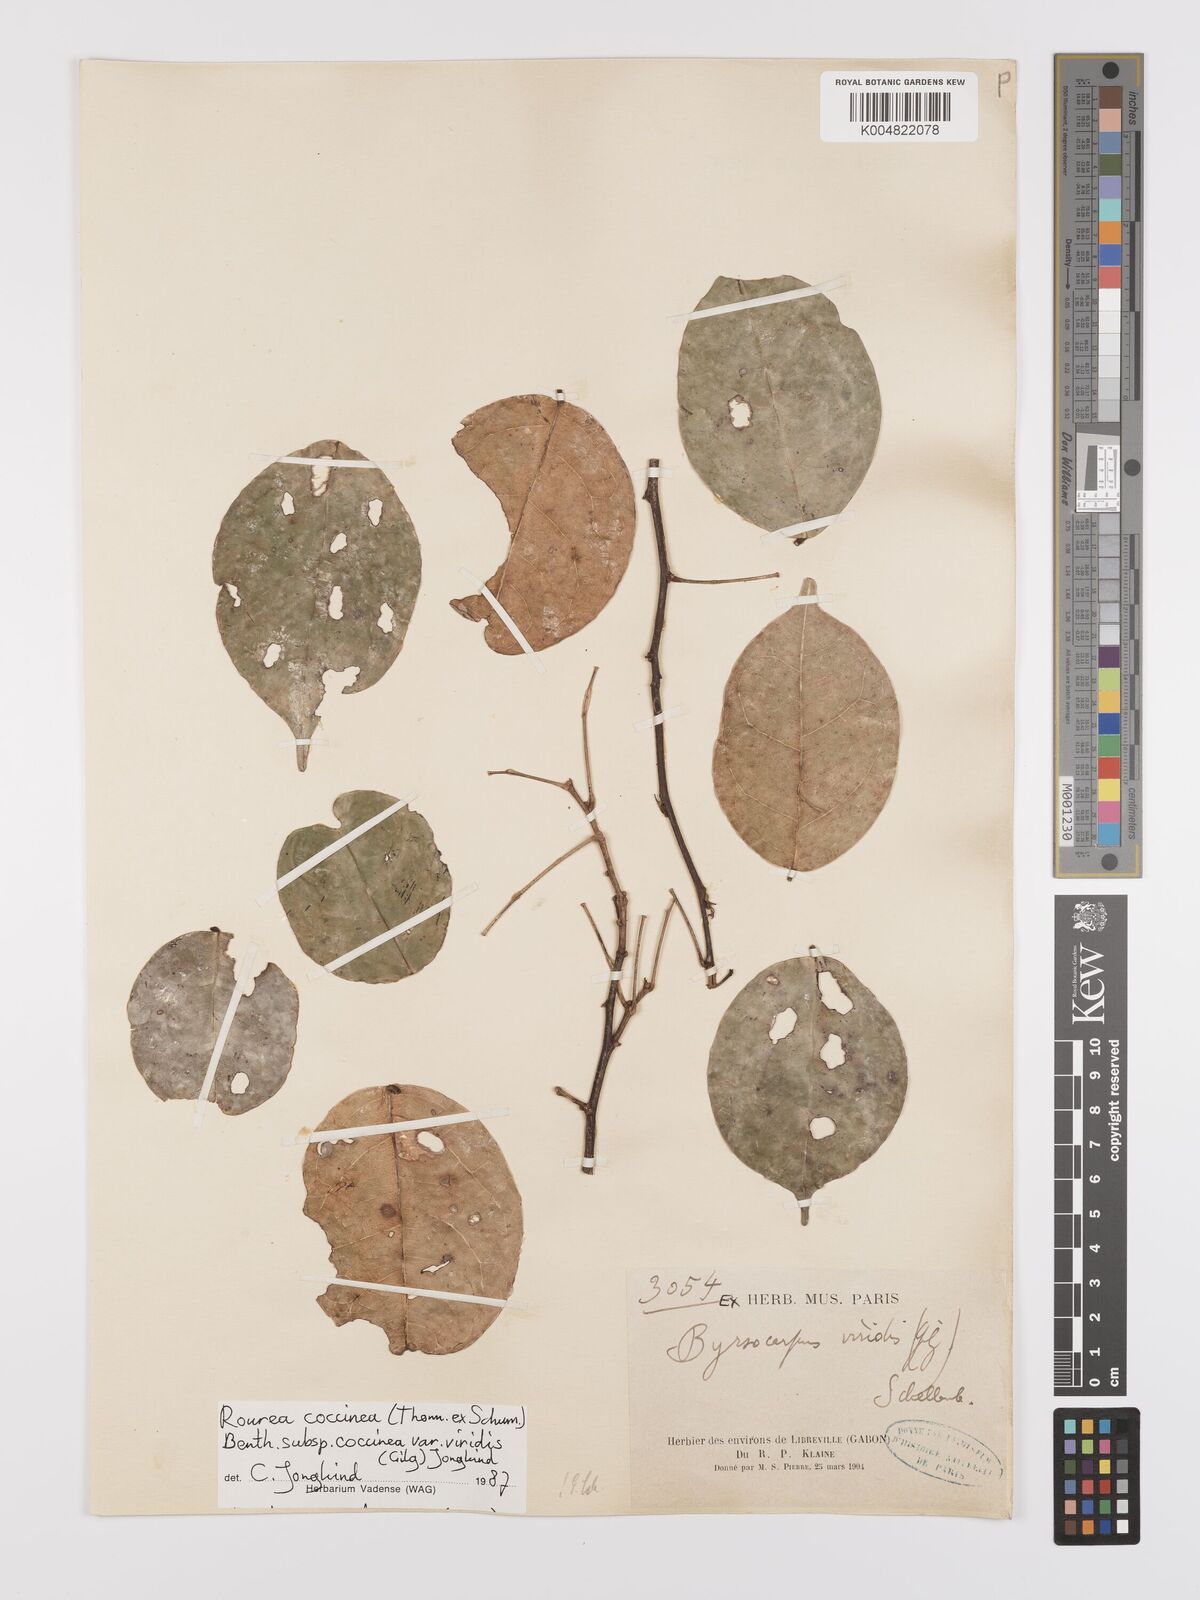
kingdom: Plantae
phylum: Tracheophyta
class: Magnoliopsida
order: Oxalidales
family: Connaraceae
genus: Rourea
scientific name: Rourea coccinea
